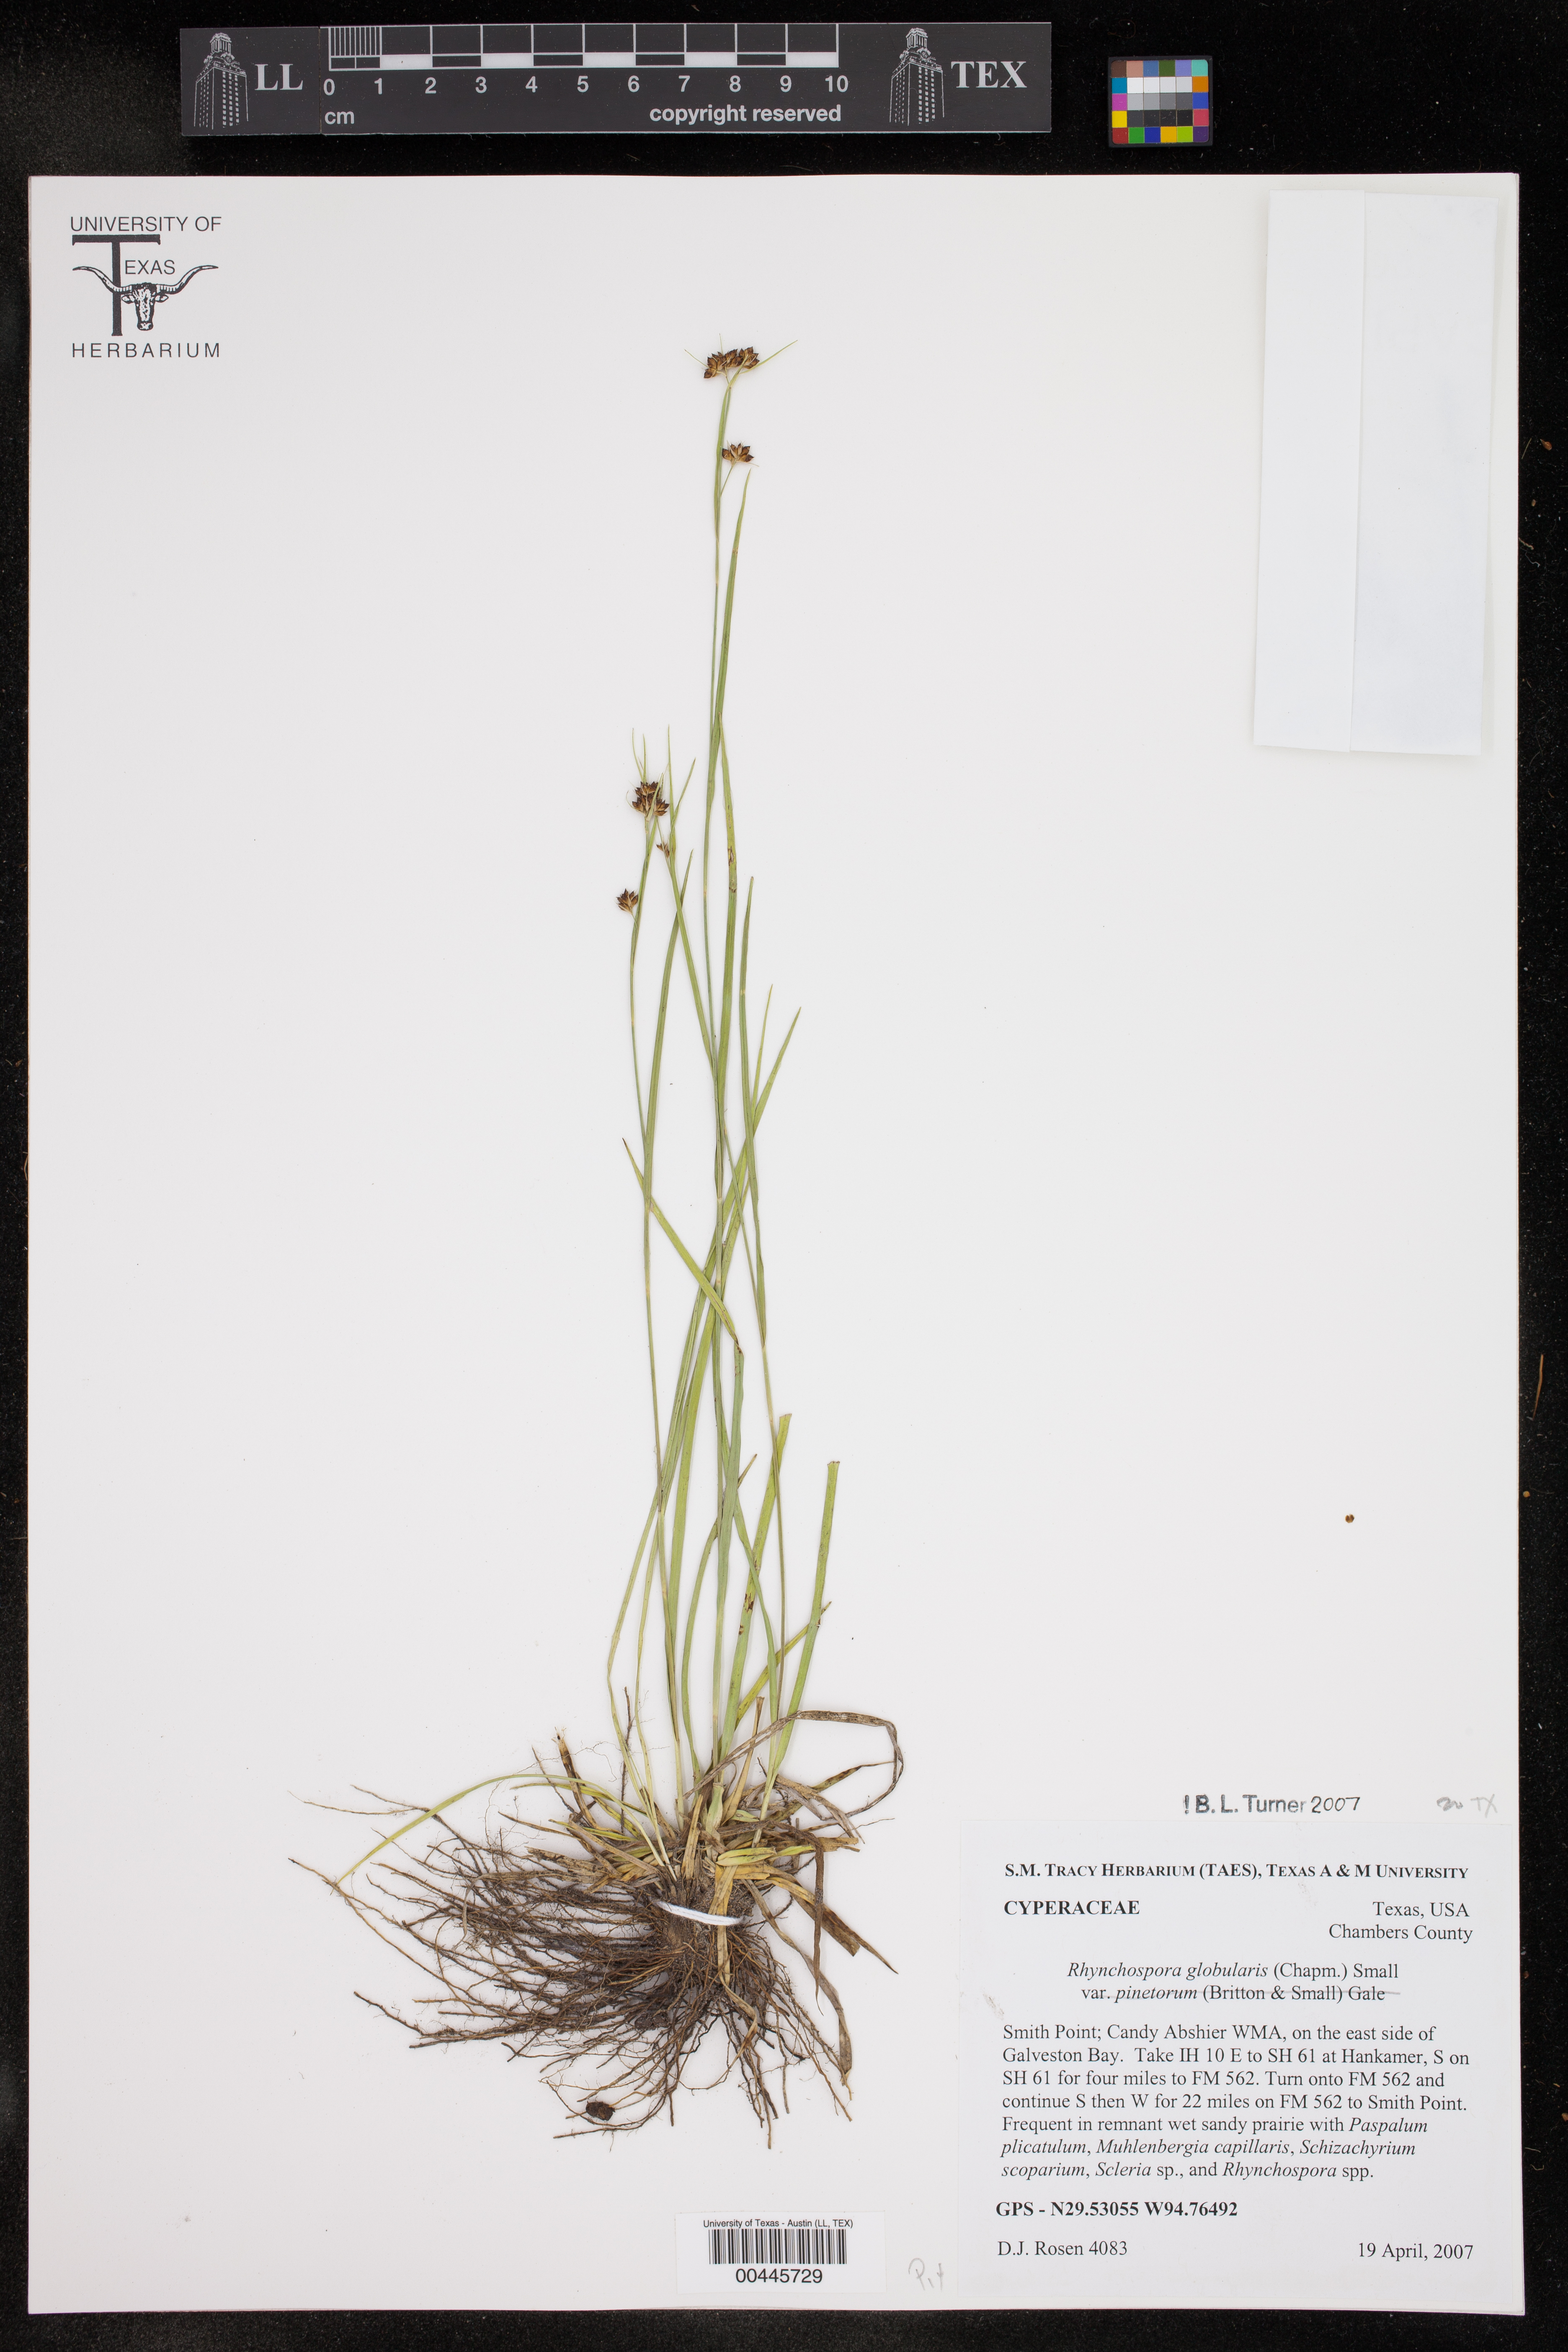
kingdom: Plantae
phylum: Tracheophyta
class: Liliopsida
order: Poales
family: Cyperaceae
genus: Rhynchospora
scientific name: Rhynchospora globularis
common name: Globe beaksedge
